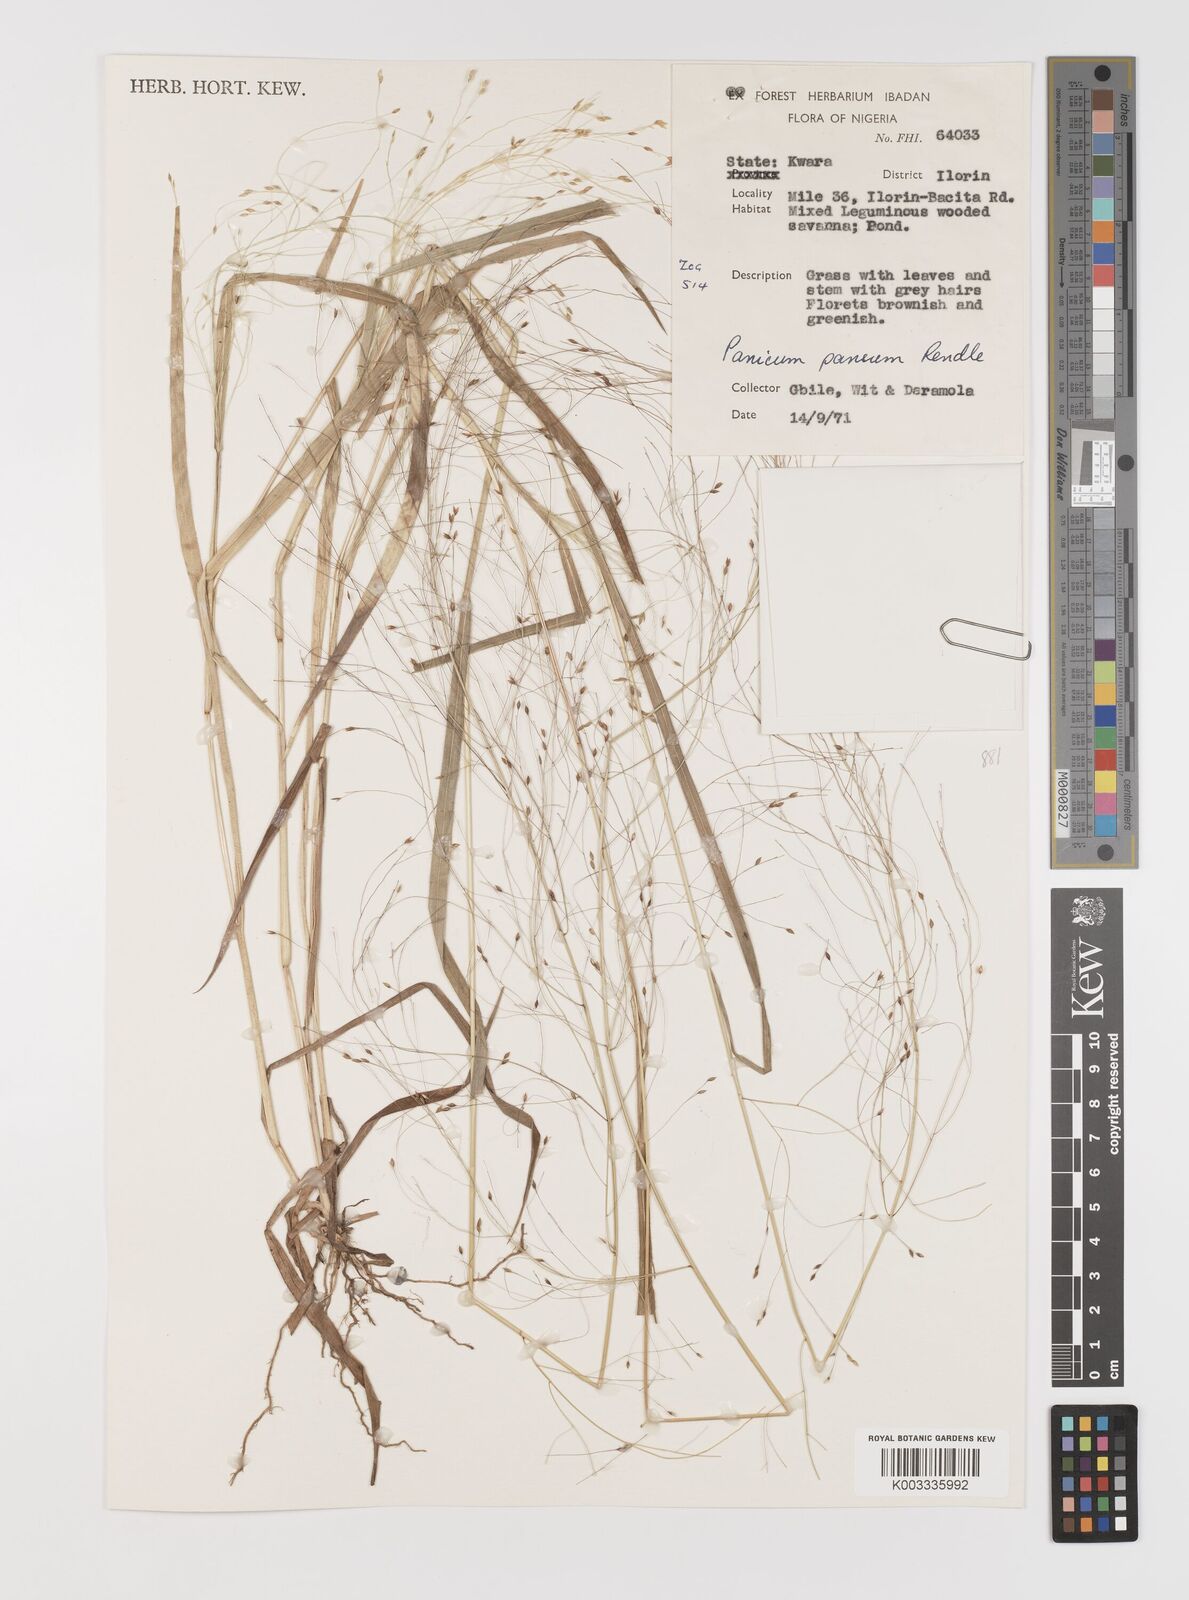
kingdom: Plantae
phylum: Tracheophyta
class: Liliopsida
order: Poales
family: Poaceae
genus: Panicum
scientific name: Panicum pansum
